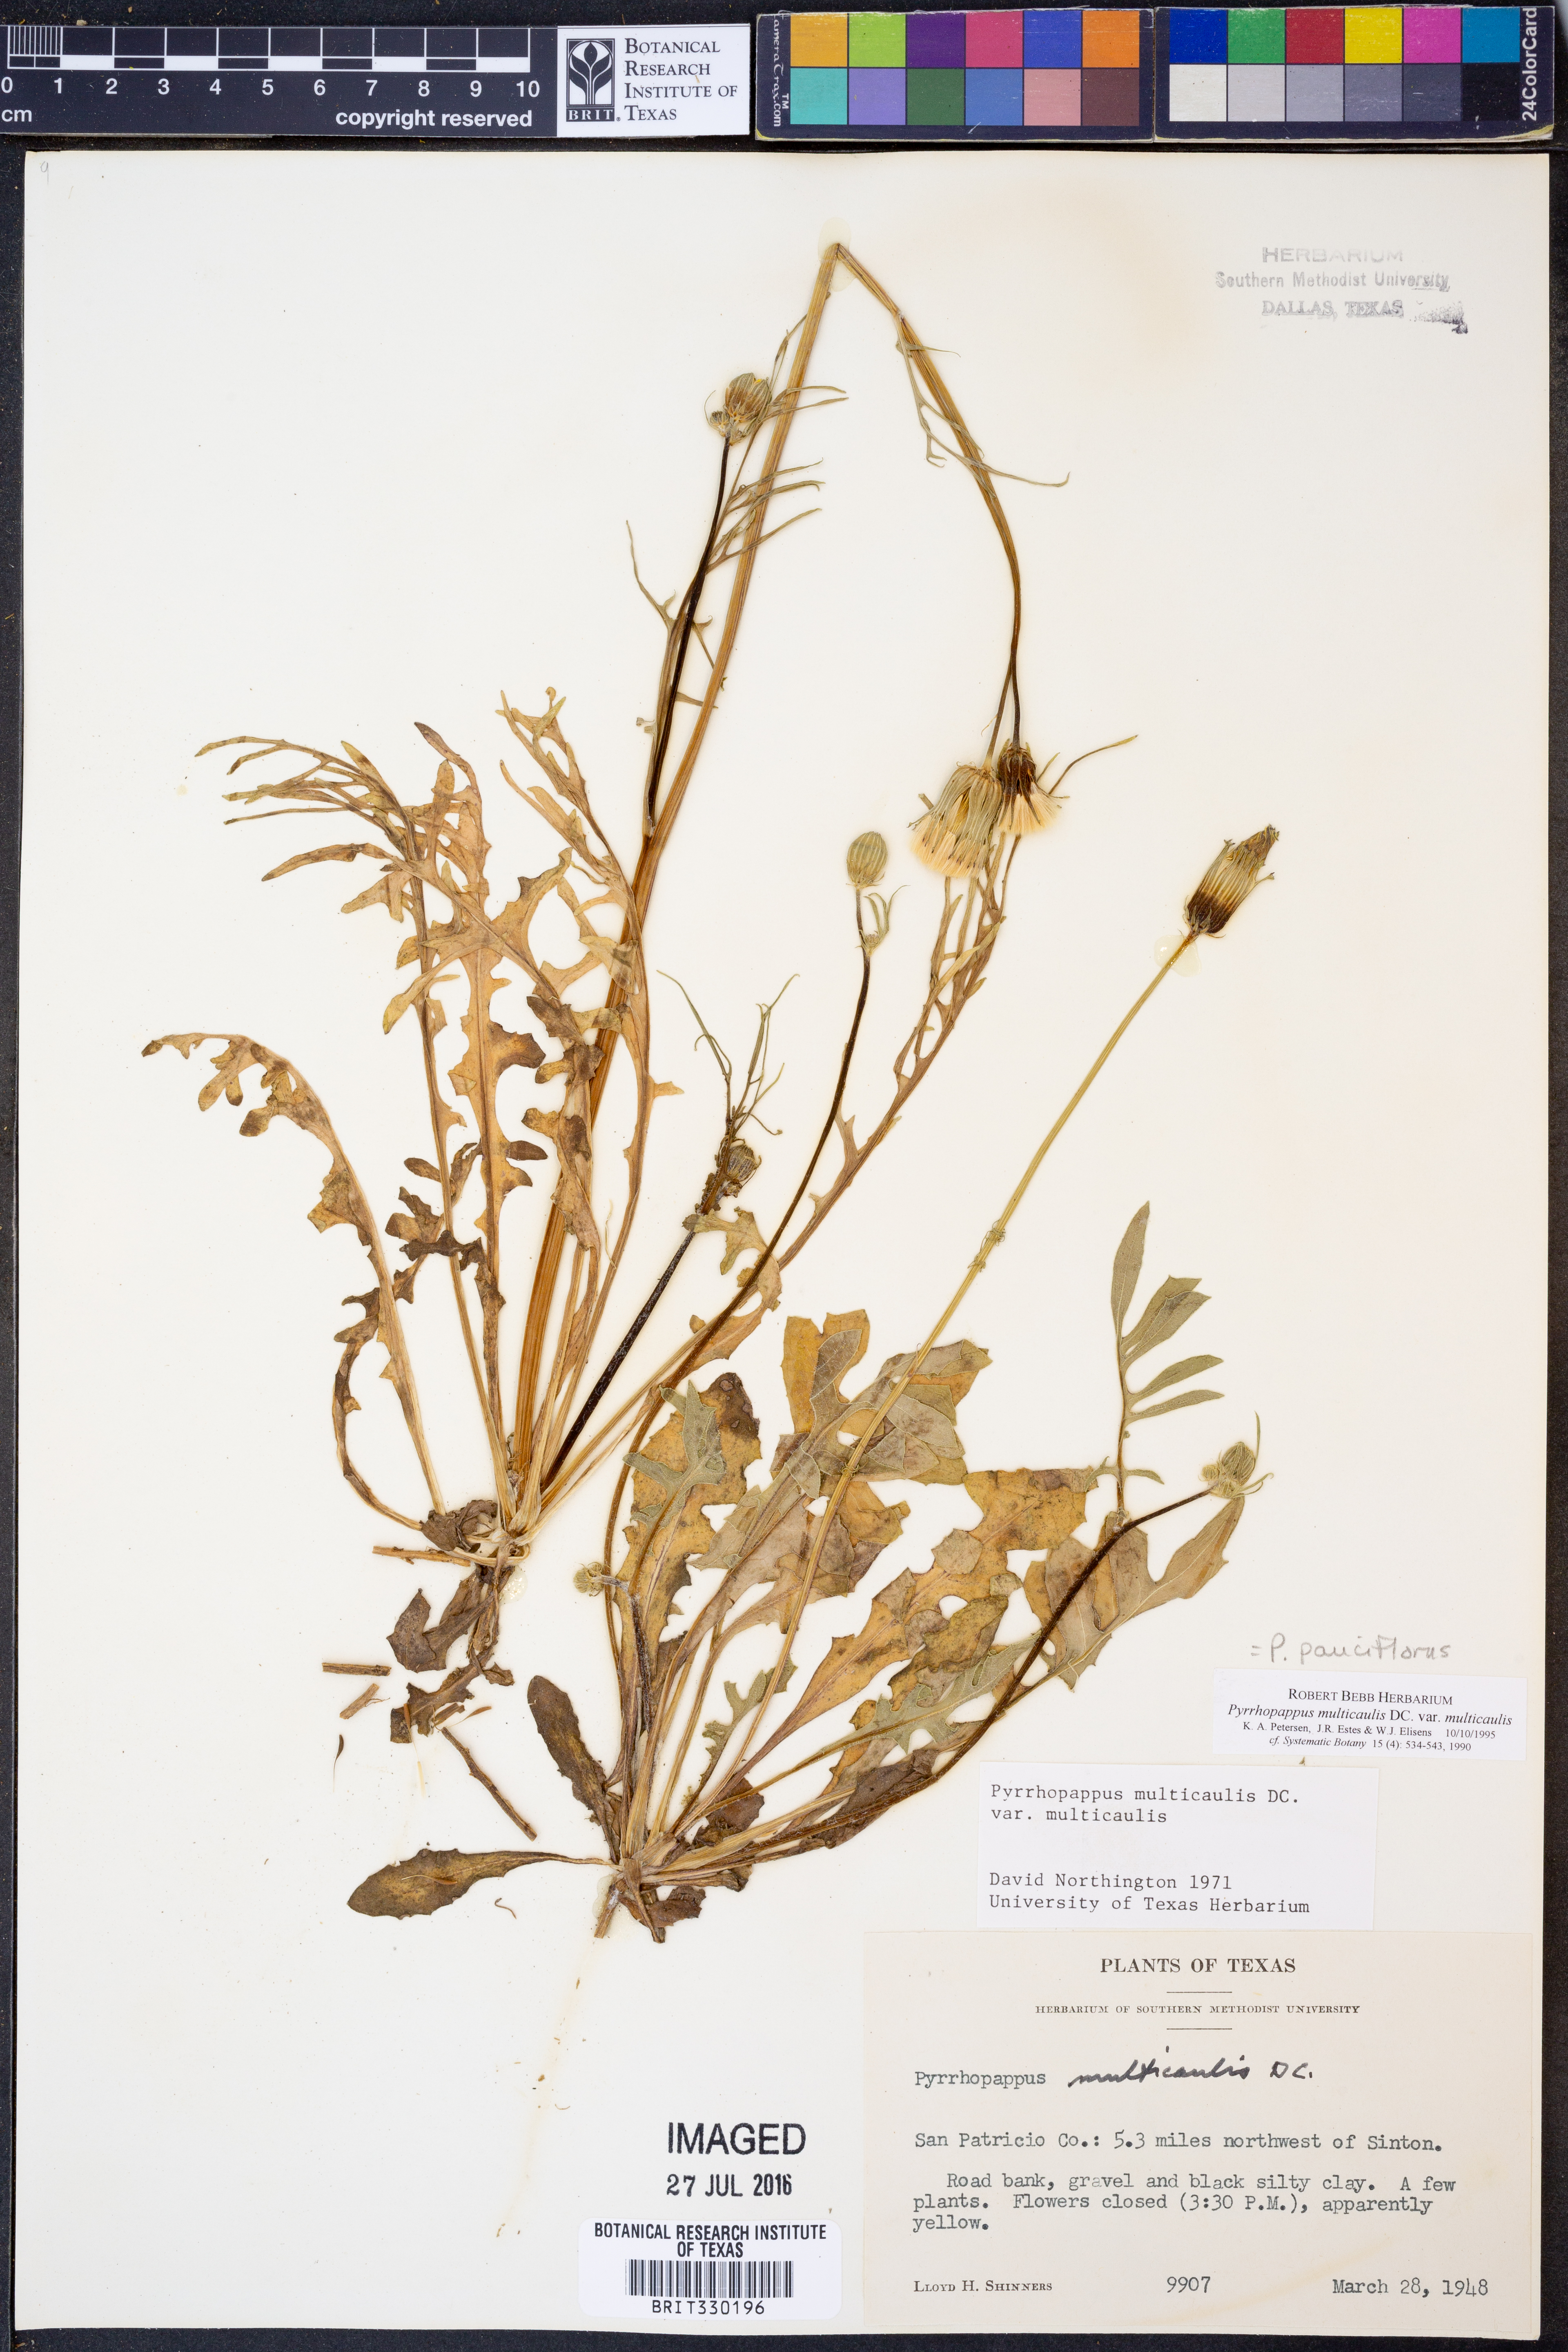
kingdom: Plantae
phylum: Tracheophyta
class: Magnoliopsida
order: Asterales
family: Asteraceae
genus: Pyrrhopappus
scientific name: Pyrrhopappus pauciflorus
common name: Texas false dandelion
